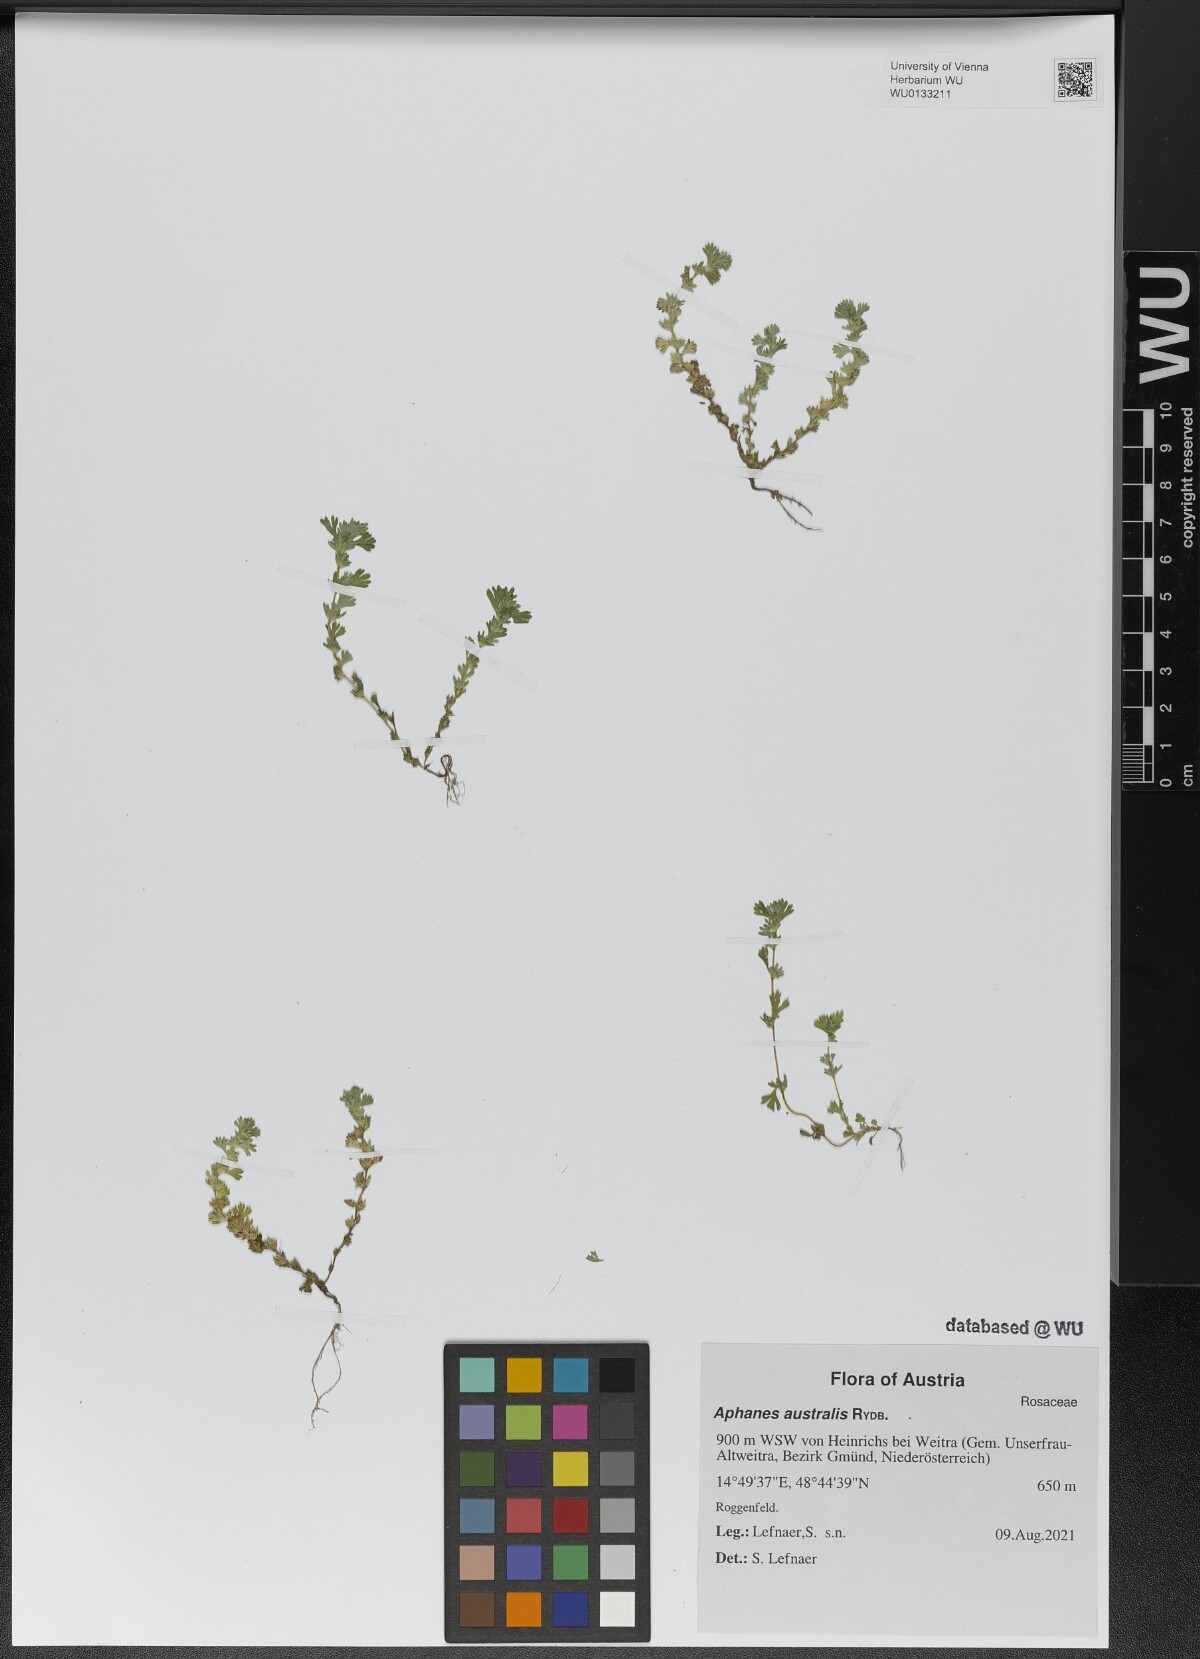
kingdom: Plantae
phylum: Tracheophyta
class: Magnoliopsida
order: Rosales
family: Rosaceae
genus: Aphanes
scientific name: Aphanes australis
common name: Slender parsley-piert
